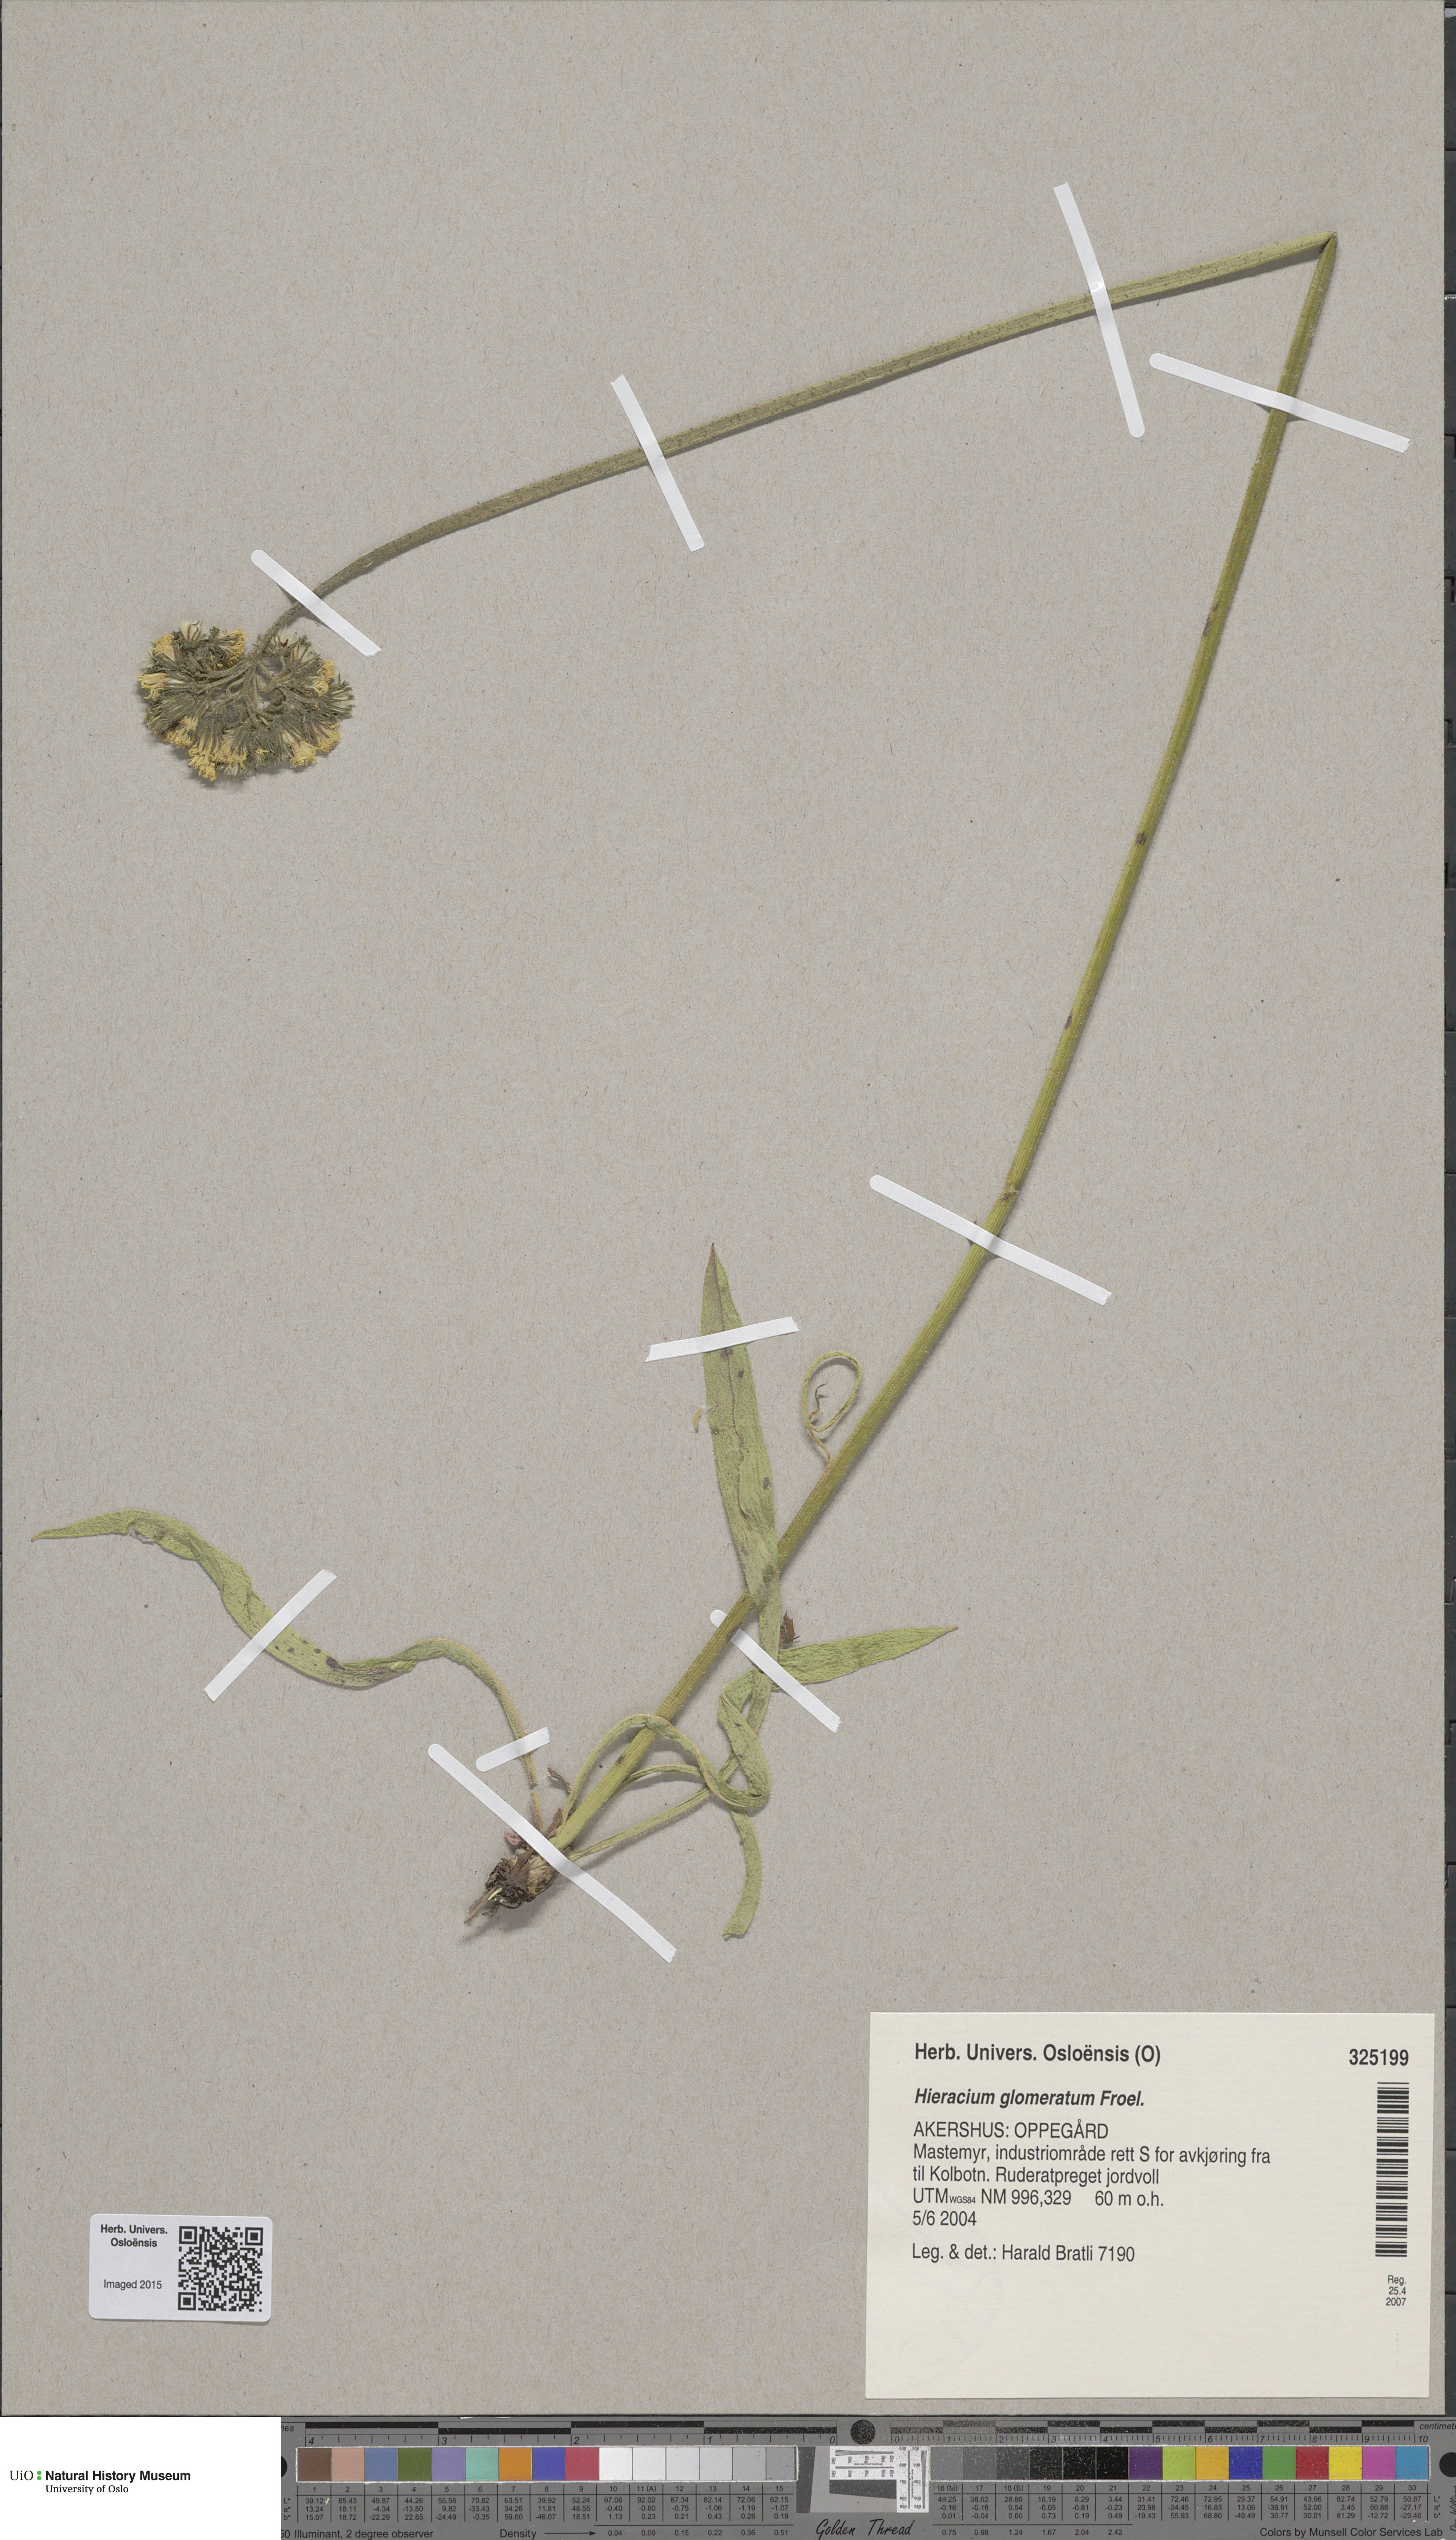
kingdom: Plantae
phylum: Tracheophyta
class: Magnoliopsida
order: Asterales
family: Asteraceae
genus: Pilosella
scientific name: Pilosella glomerata
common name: Queen devil hawkweed
